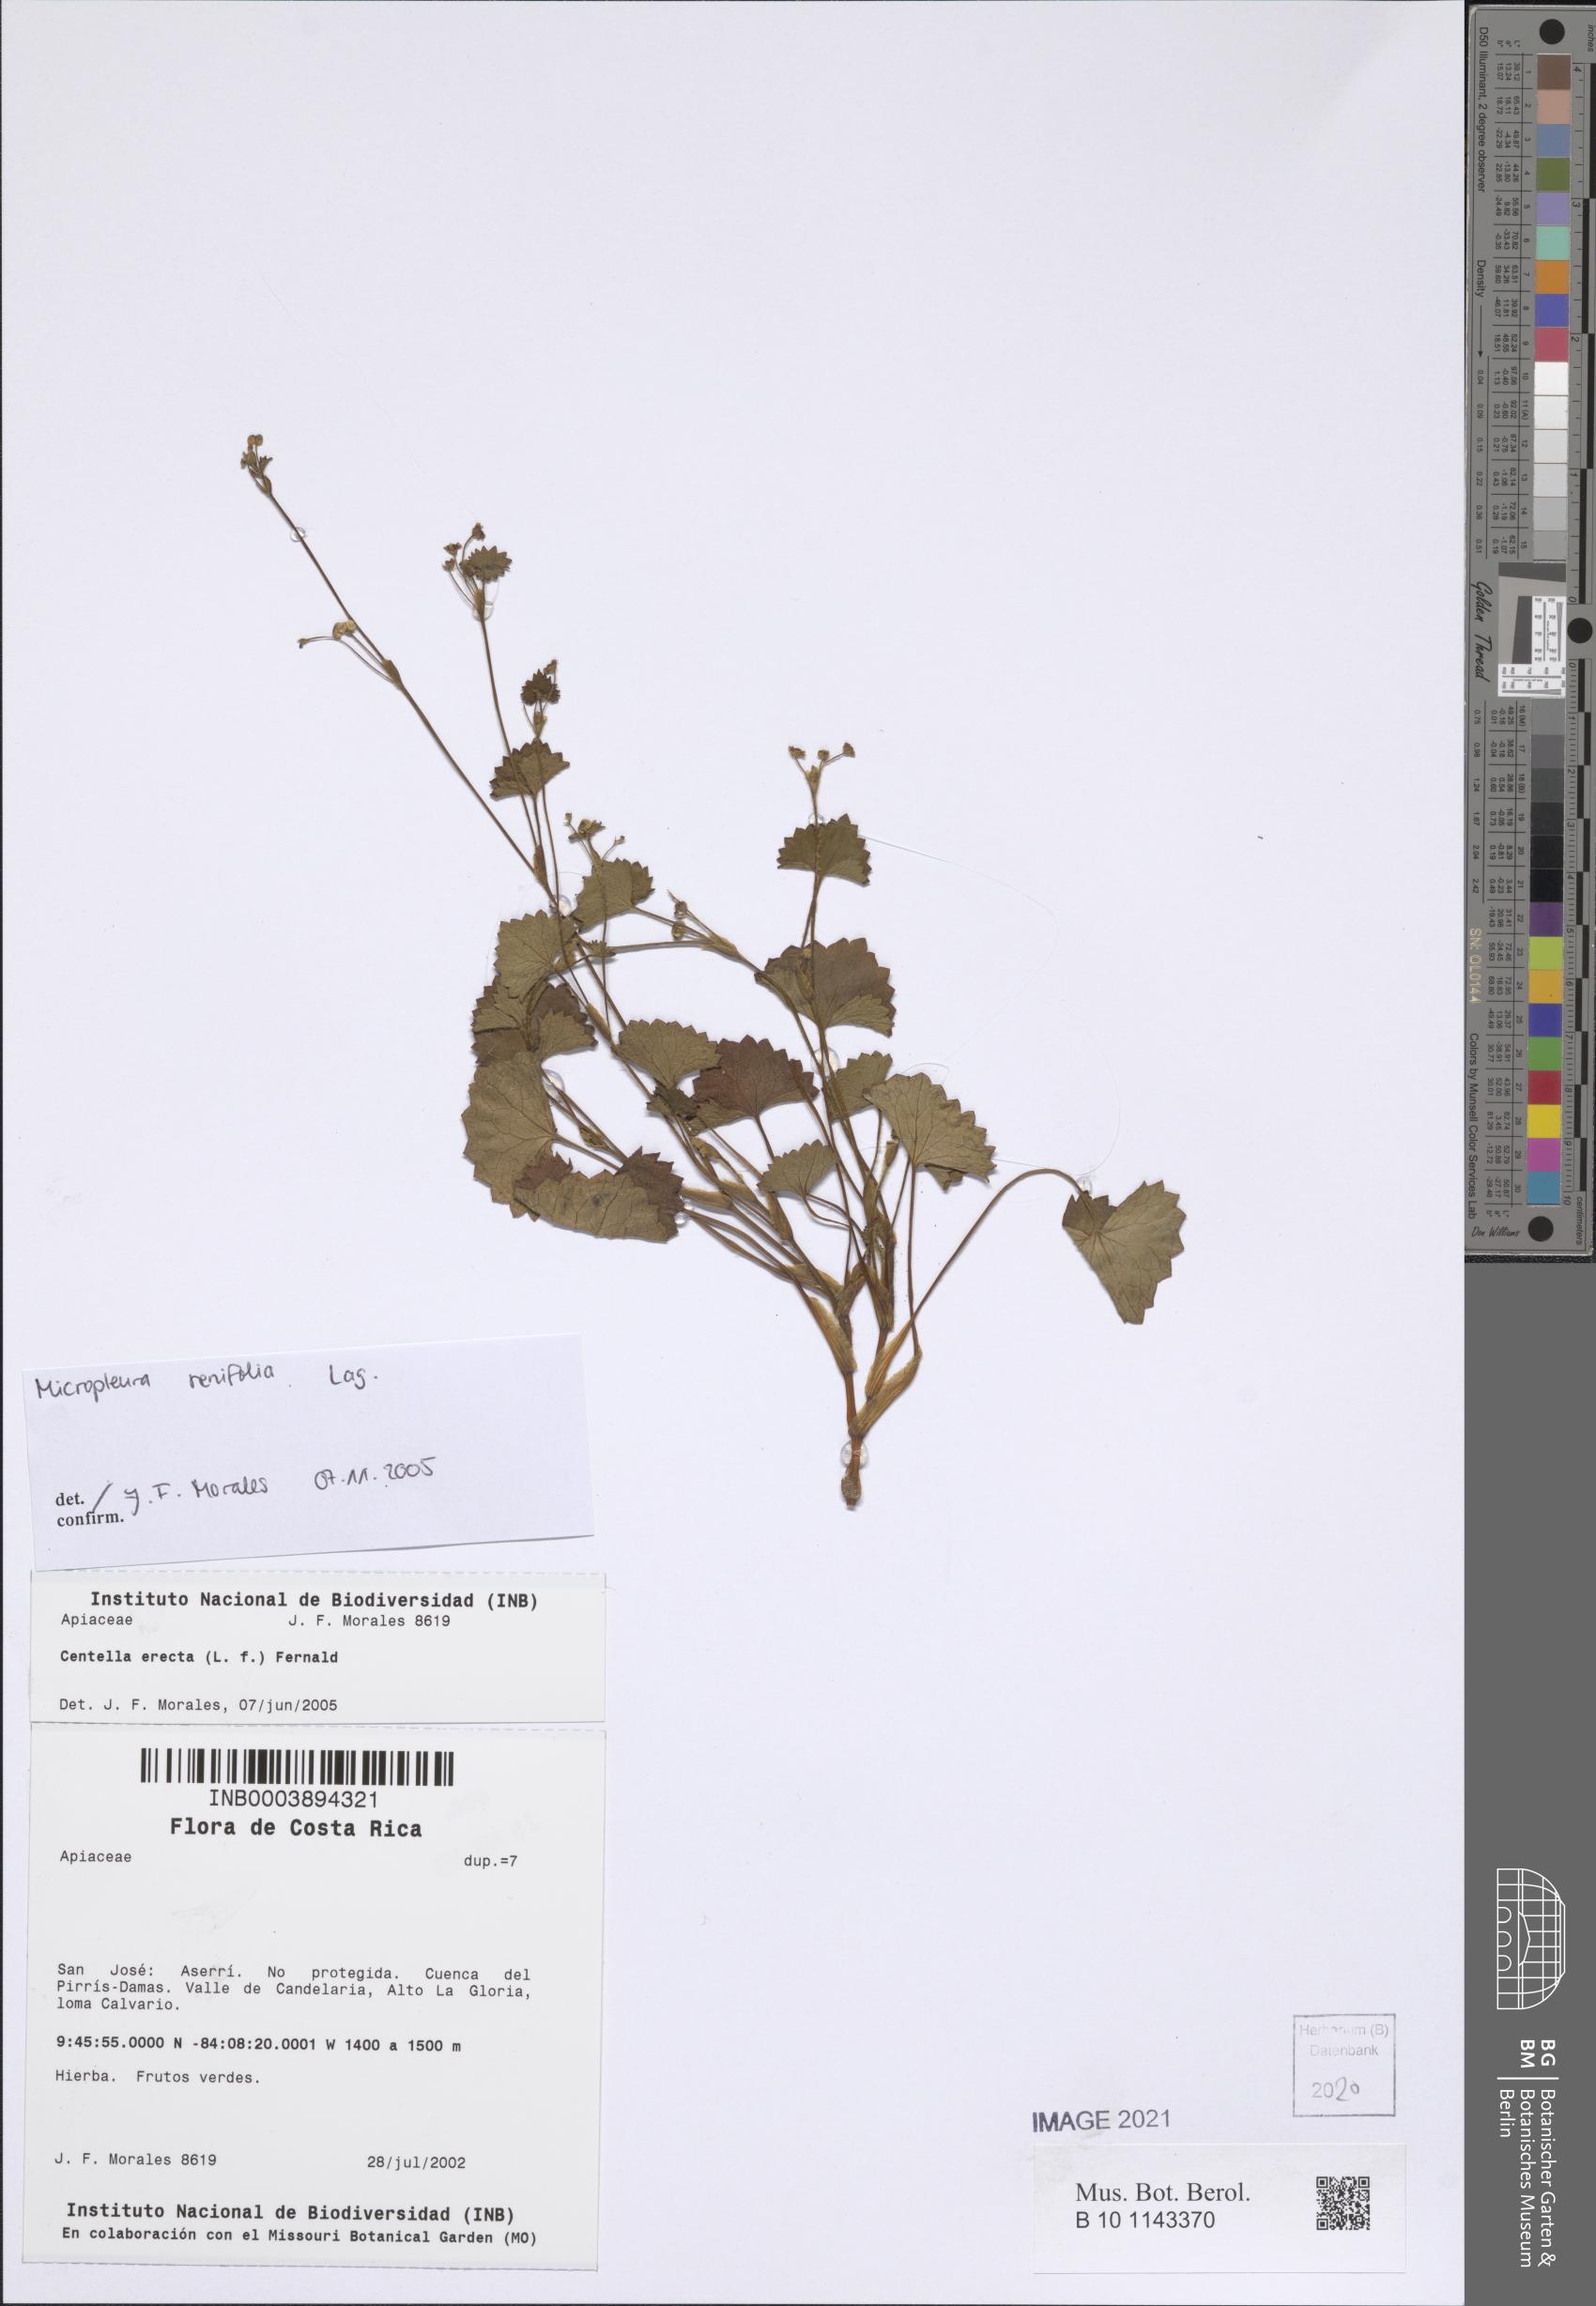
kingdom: Plantae
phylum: Tracheophyta
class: Magnoliopsida
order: Apiales
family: Apiaceae
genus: Micropleura
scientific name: Micropleura renifolia
